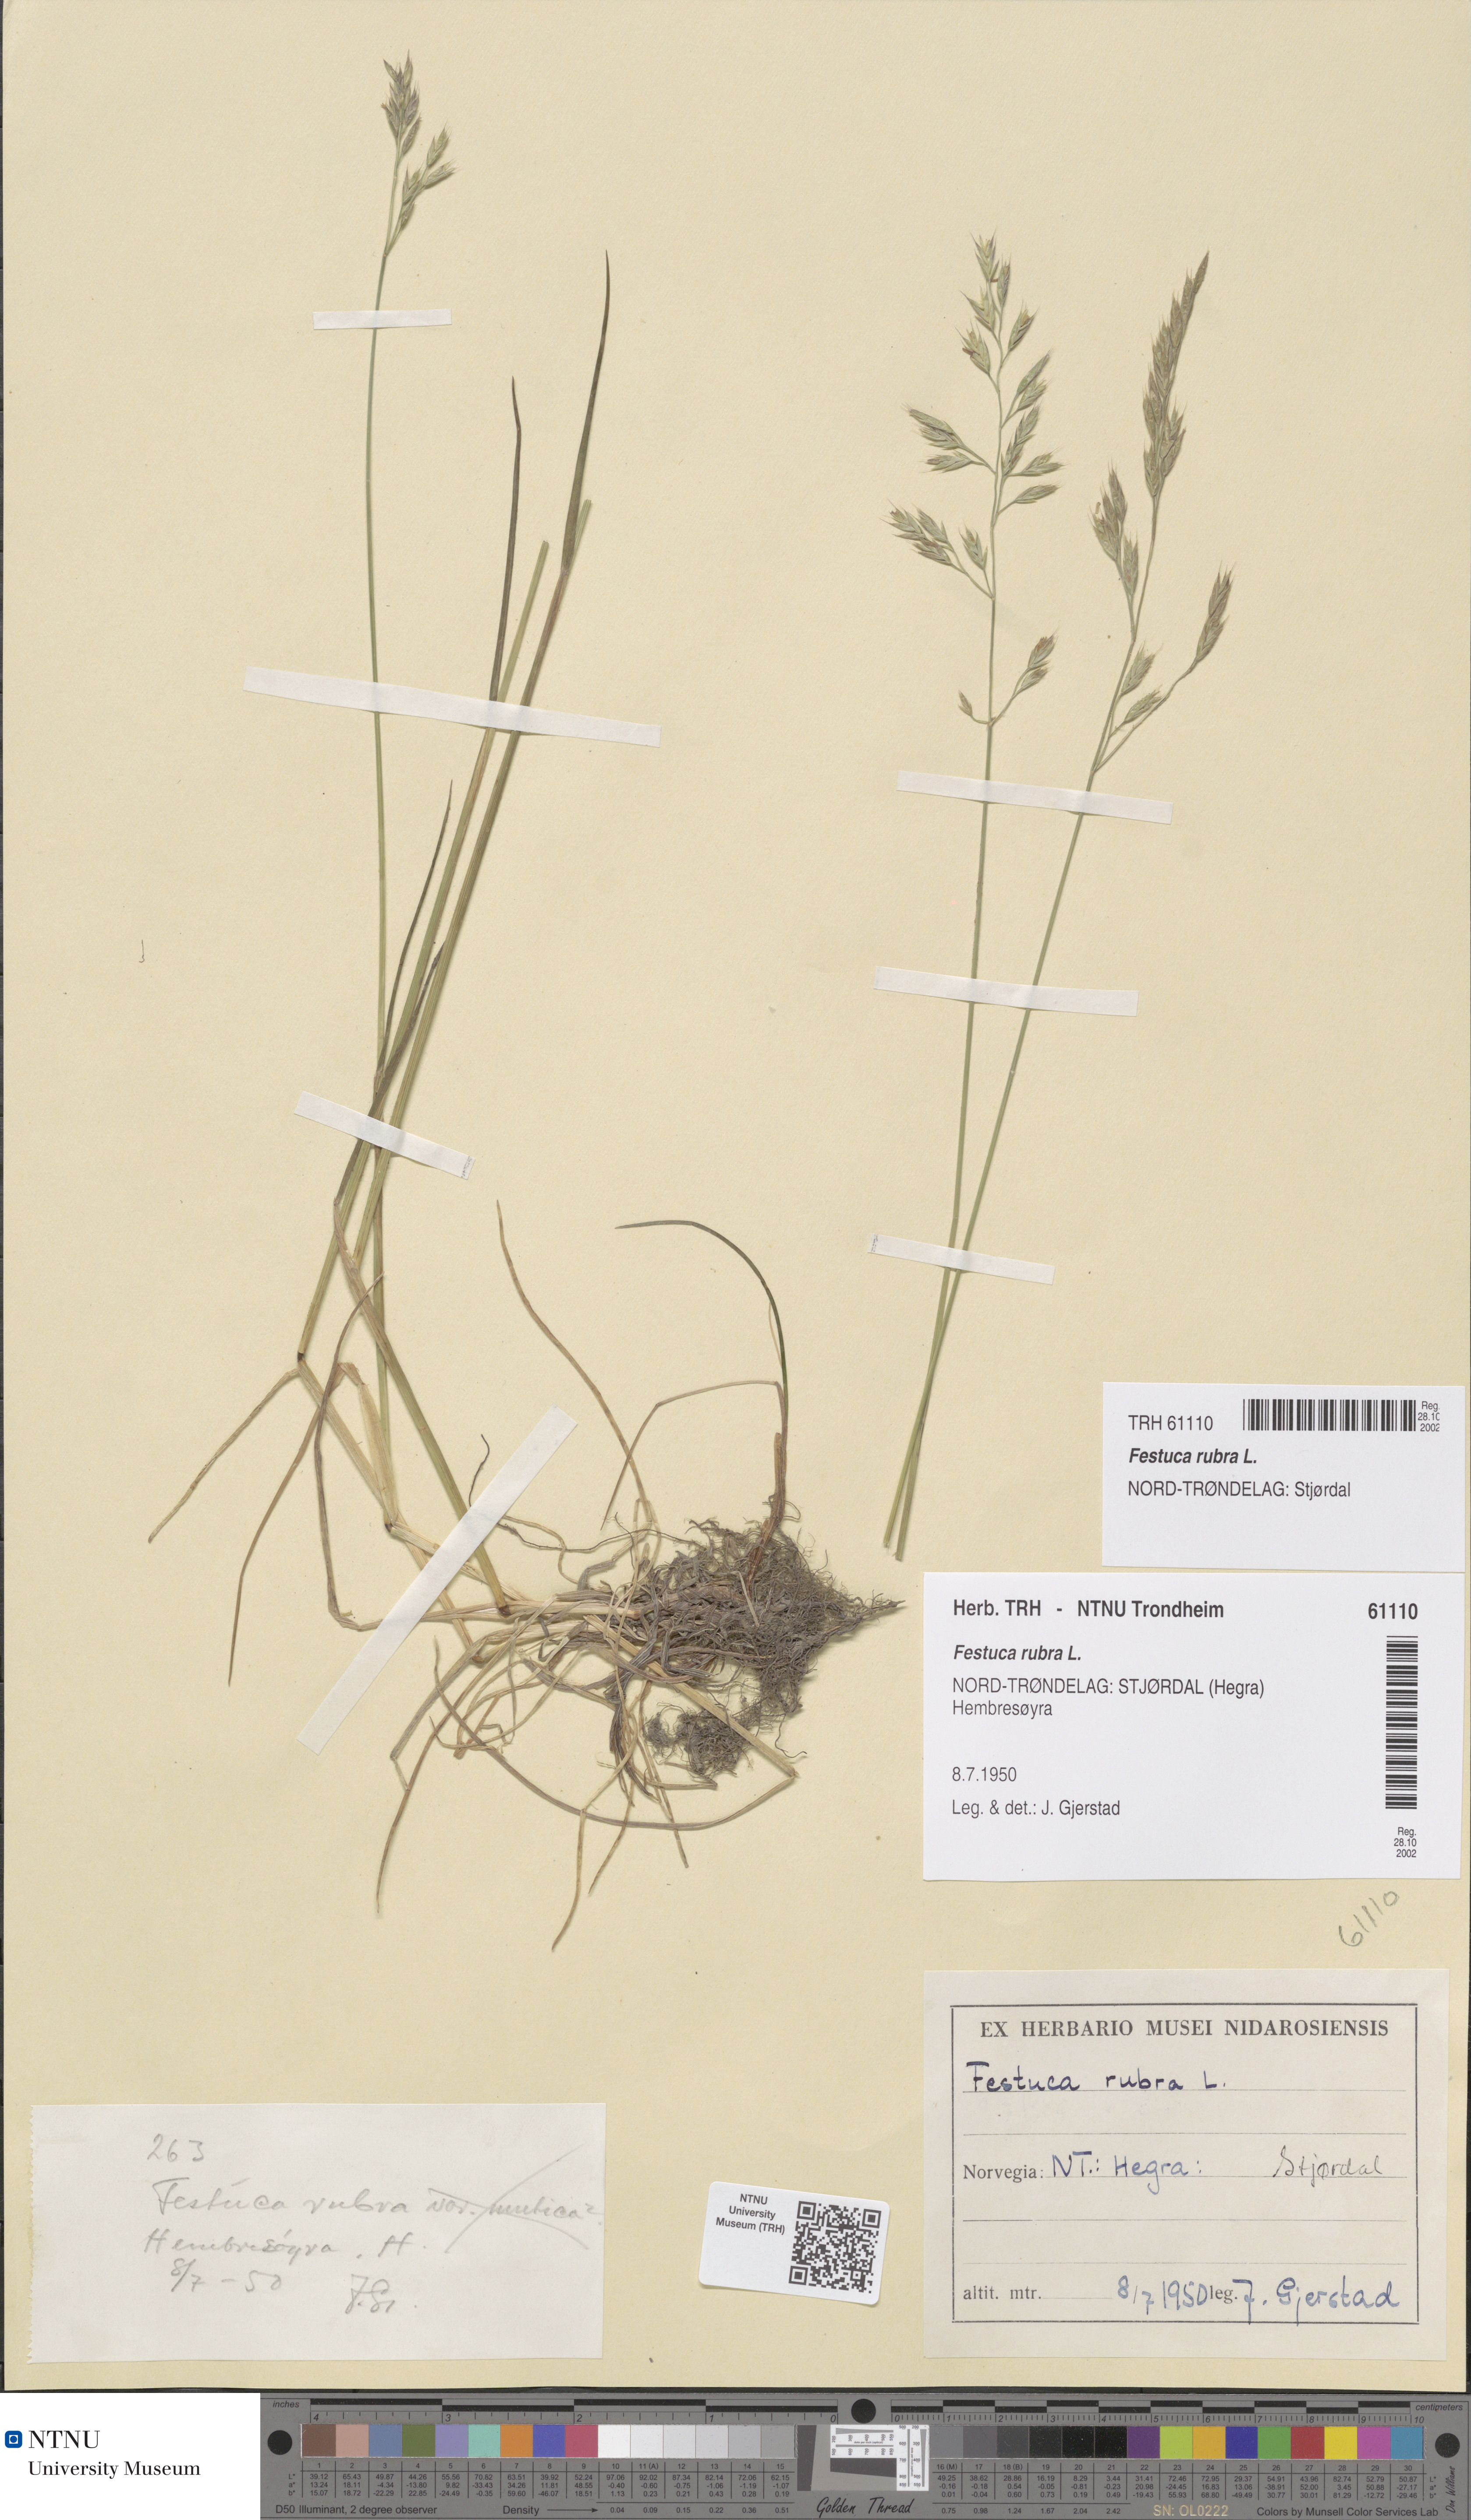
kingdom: Plantae
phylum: Tracheophyta
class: Liliopsida
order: Poales
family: Poaceae
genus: Festuca
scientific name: Festuca rubra
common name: Red fescue
